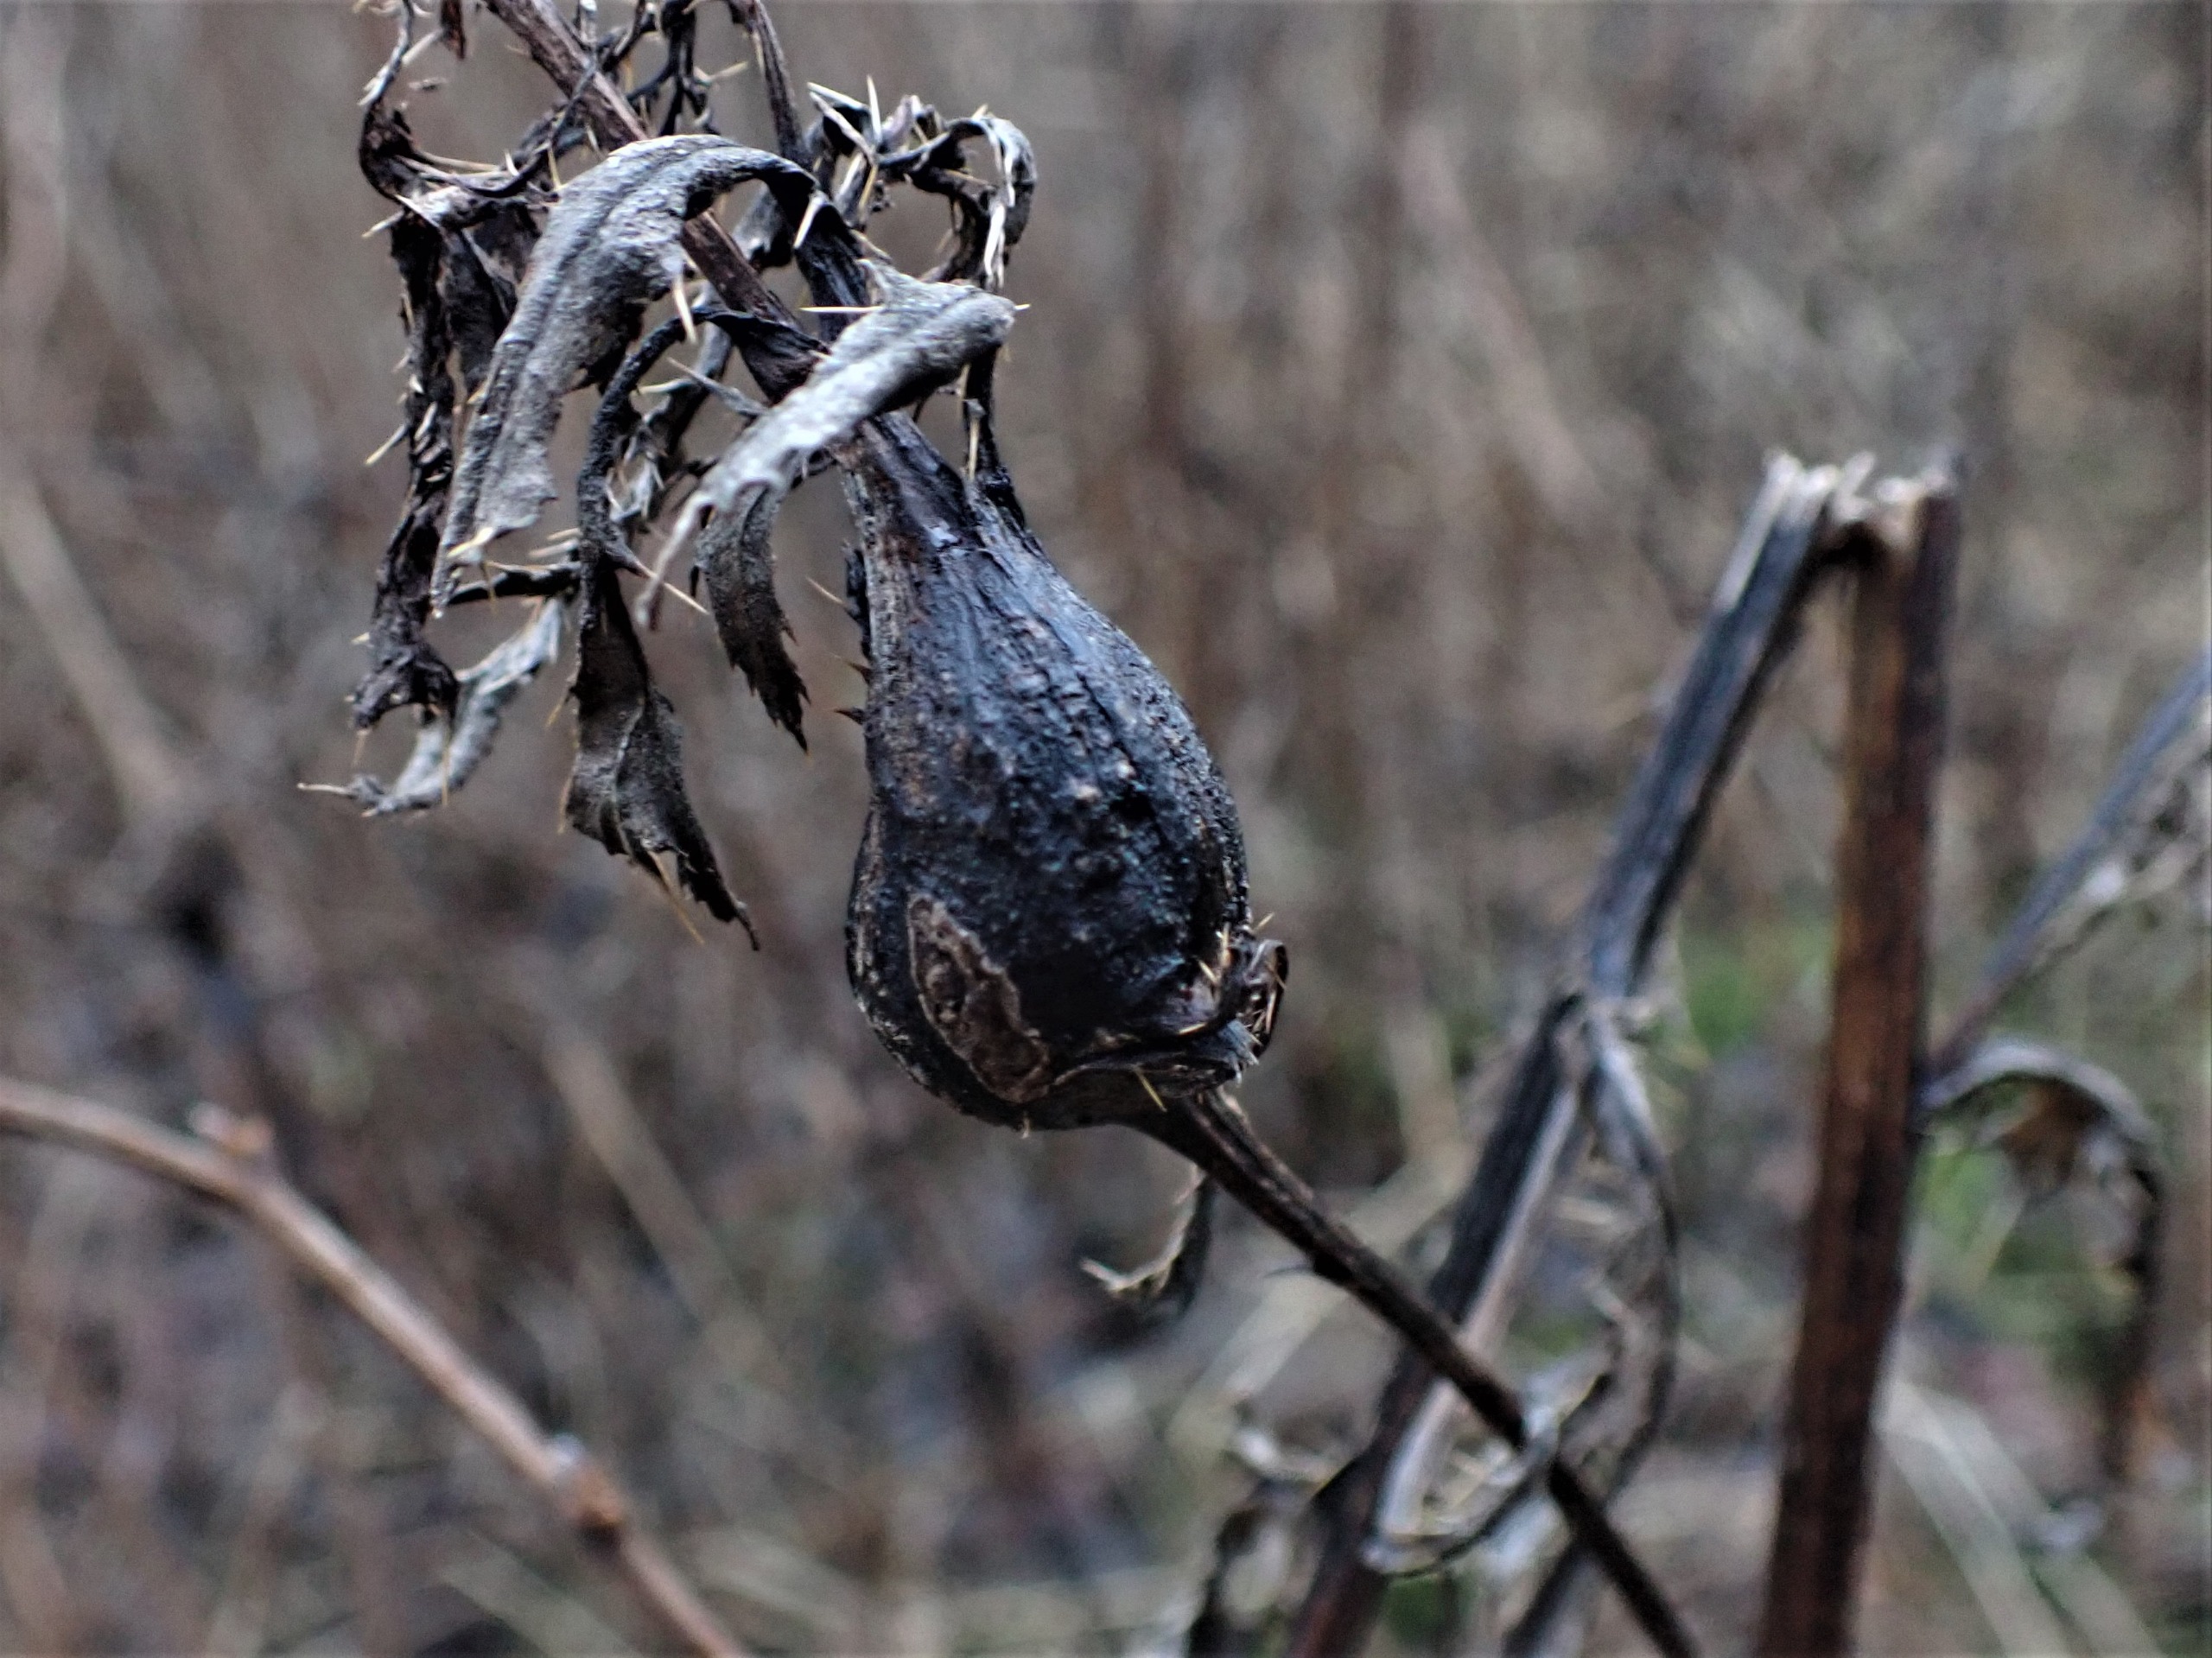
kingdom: Animalia
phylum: Arthropoda
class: Insecta
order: Diptera
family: Tephritidae
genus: Urophora
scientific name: Urophora cardui
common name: Tidselbåndflue
